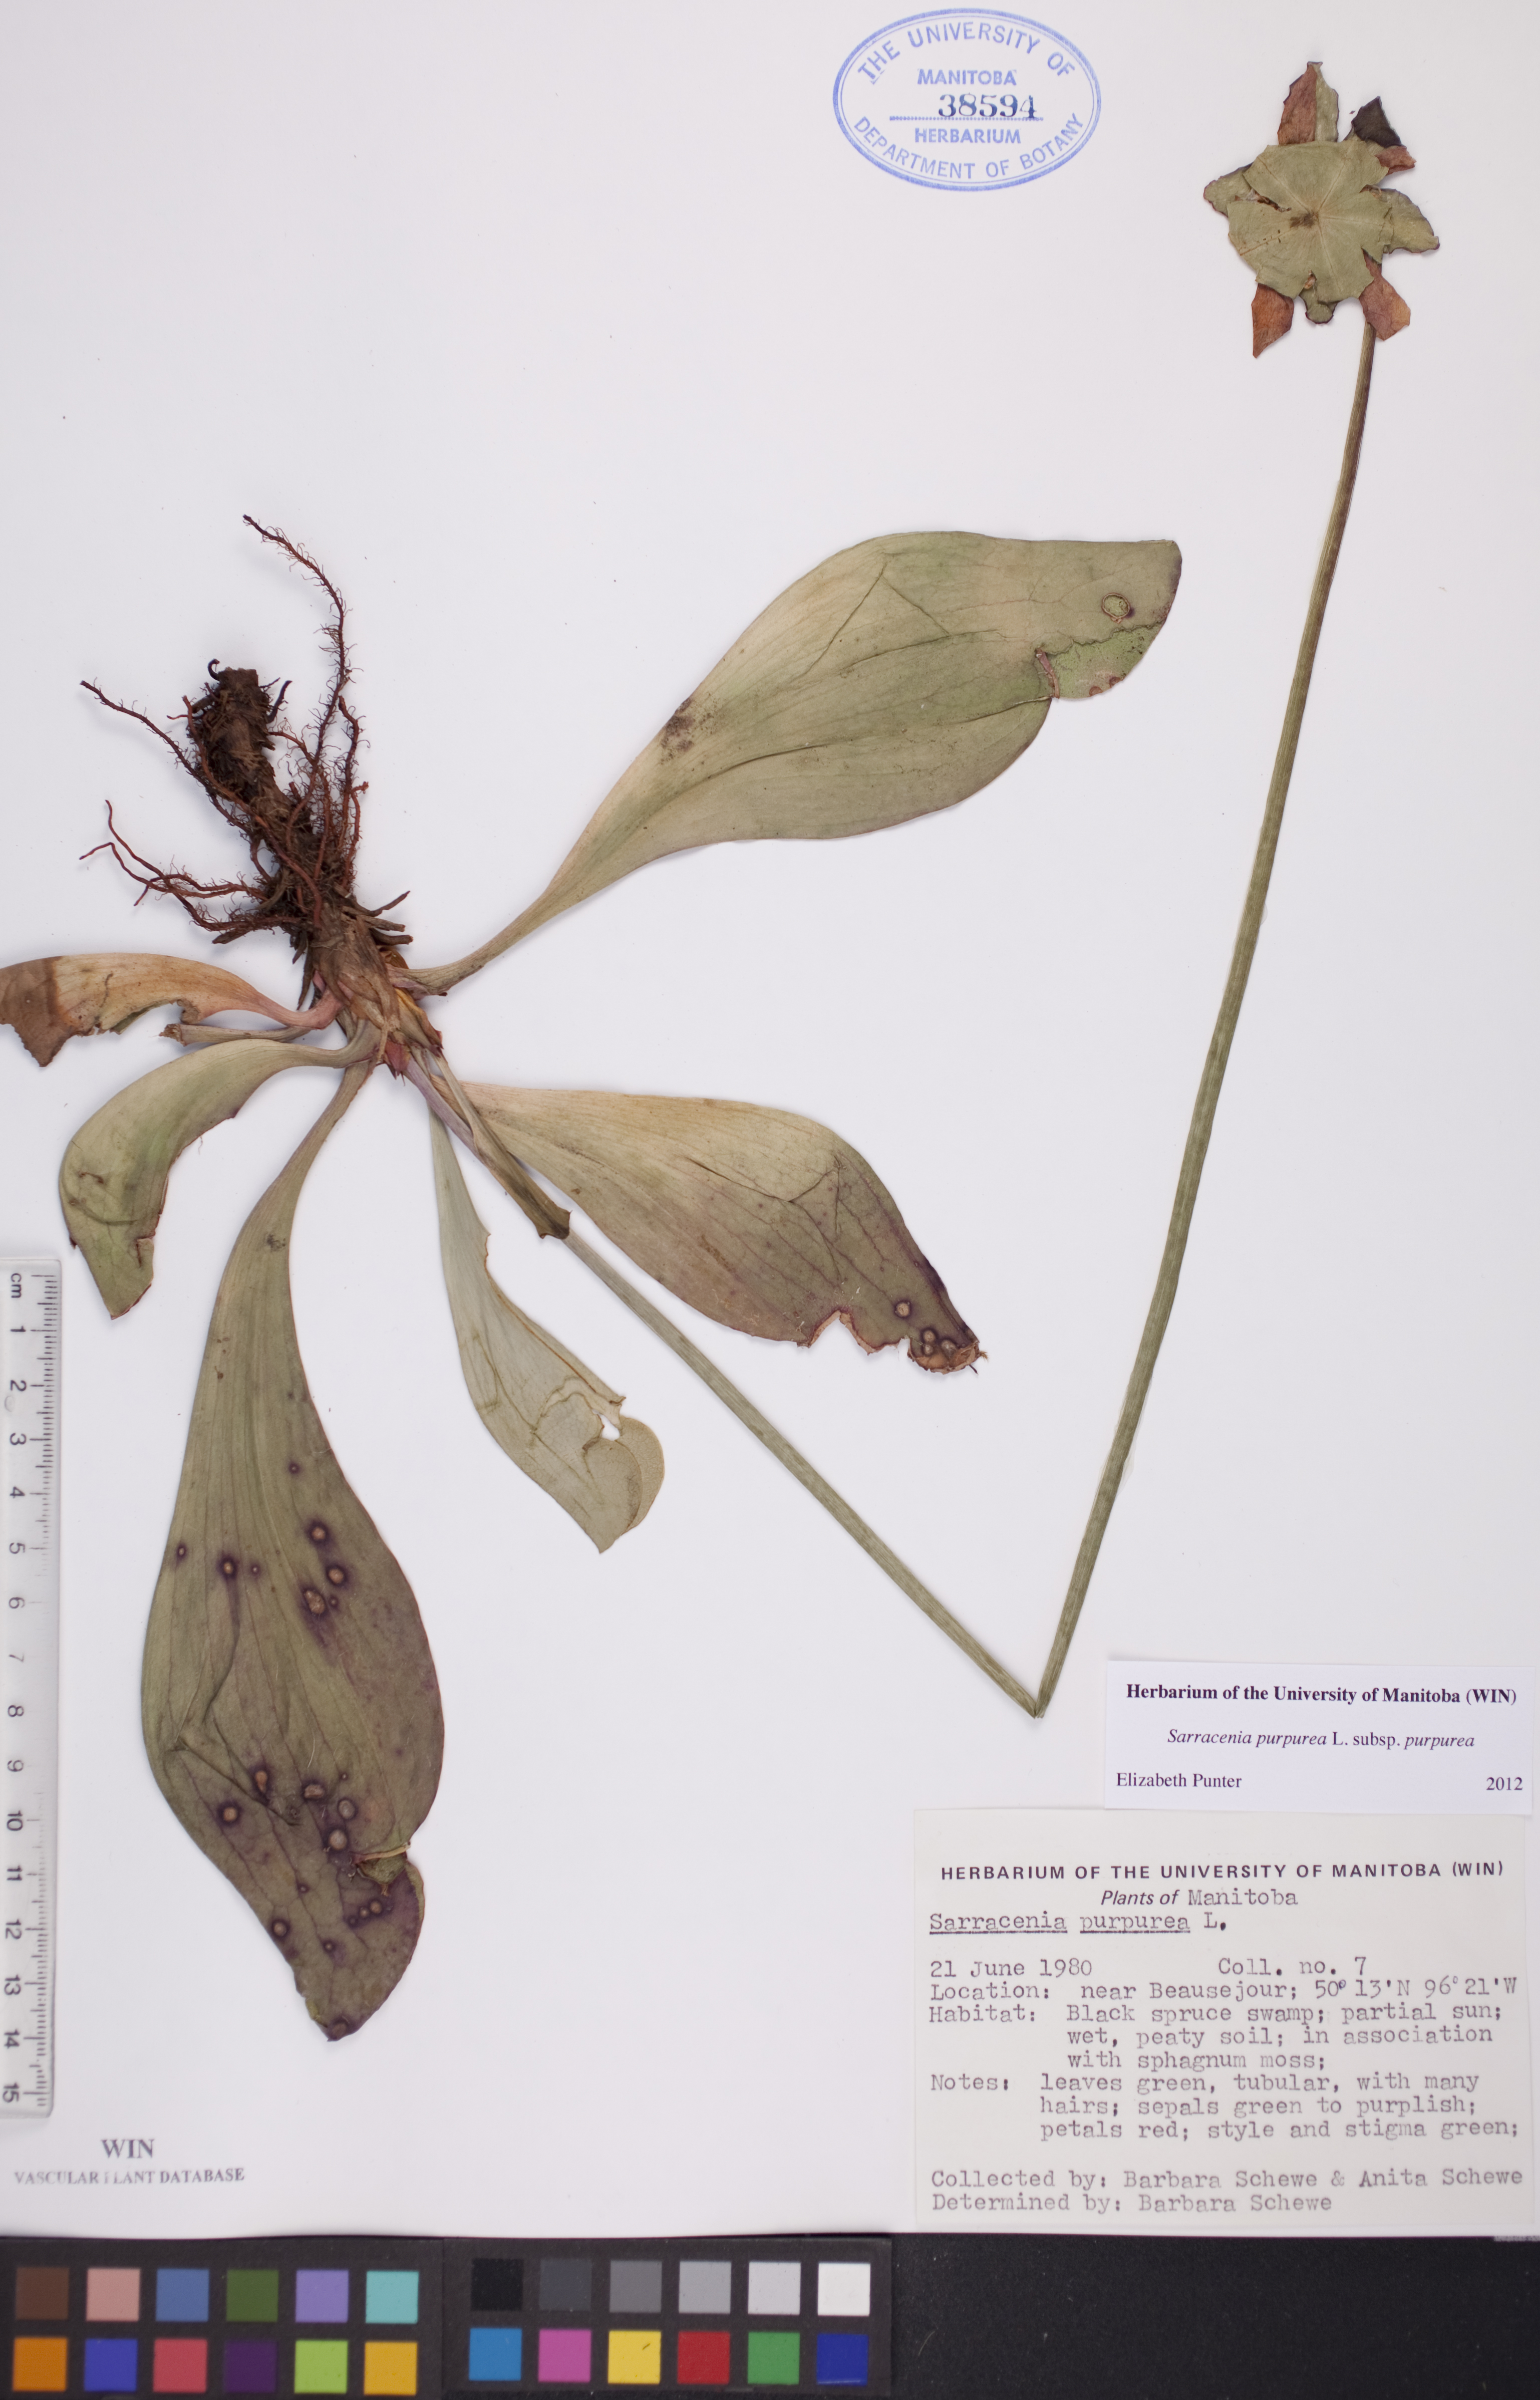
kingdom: Plantae
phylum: Tracheophyta
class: Magnoliopsida
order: Ericales
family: Sarraceniaceae
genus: Sarracenia
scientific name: Sarracenia purpurea
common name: Pitcherplant
